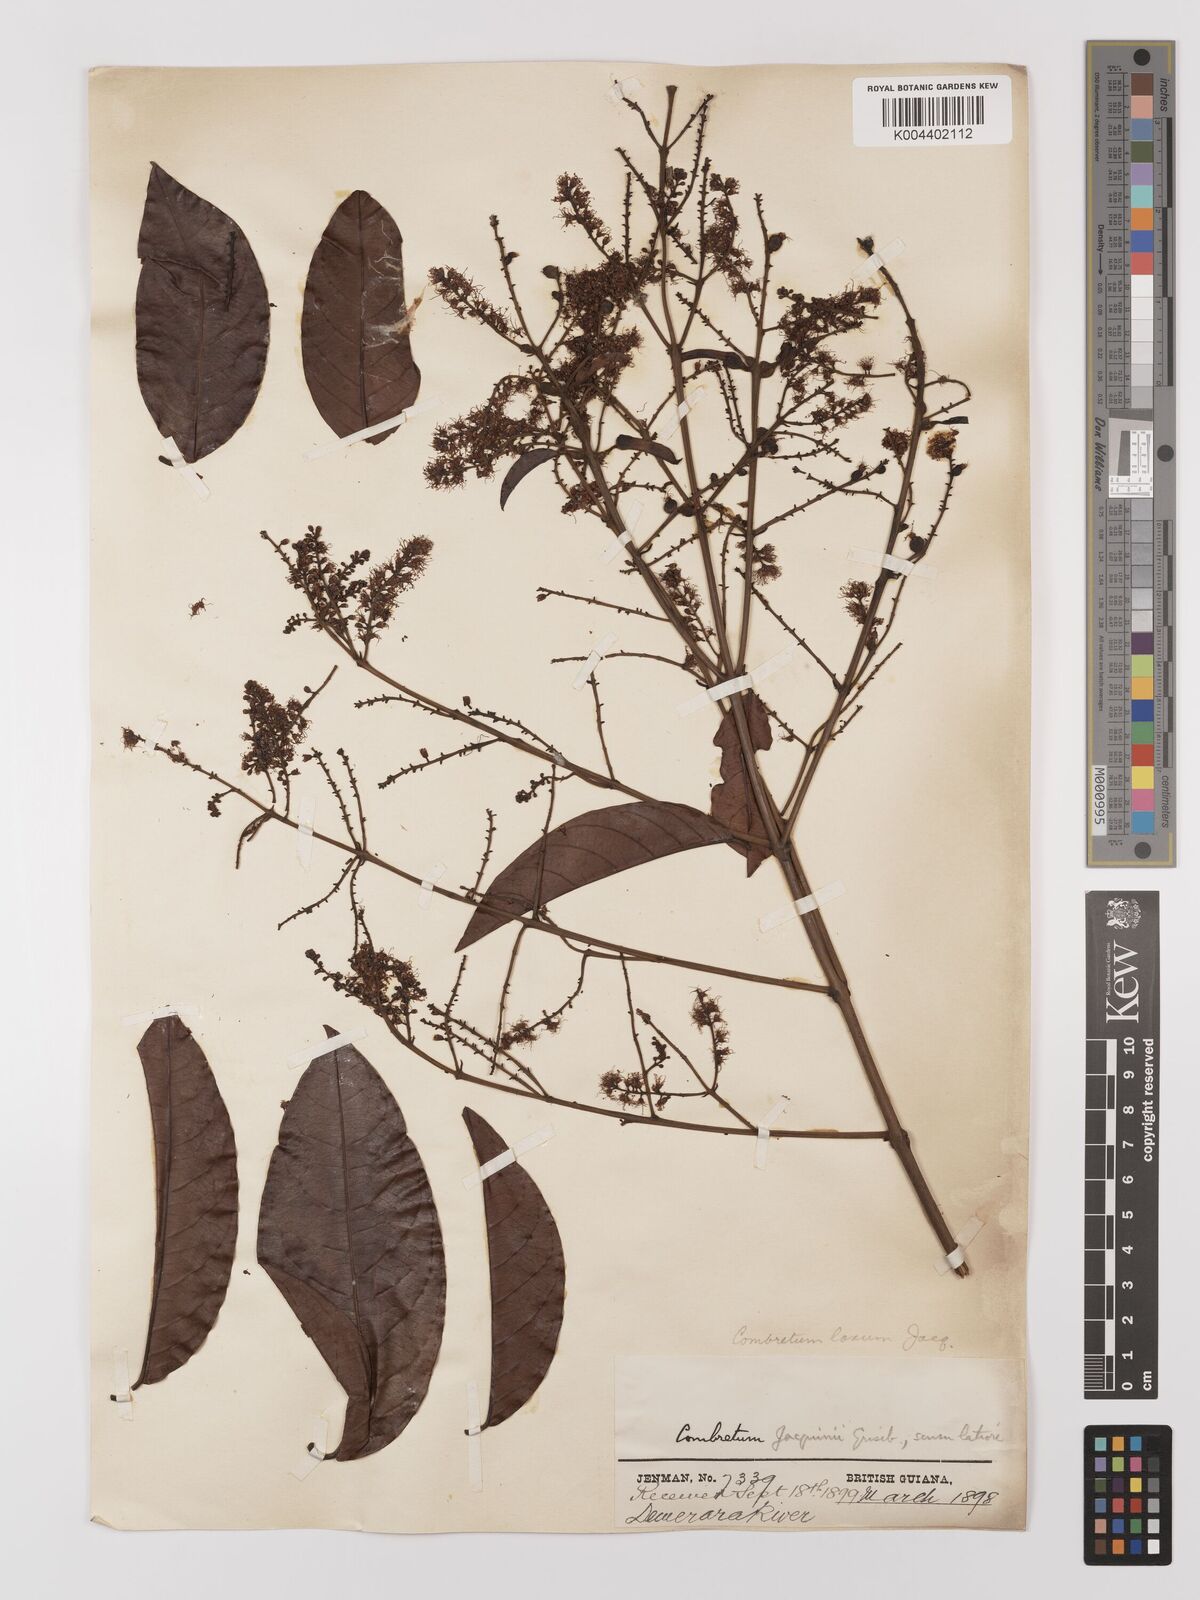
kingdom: Plantae
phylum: Tracheophyta
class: Magnoliopsida
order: Myrtales
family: Combretaceae
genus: Combretum
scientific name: Combretum
